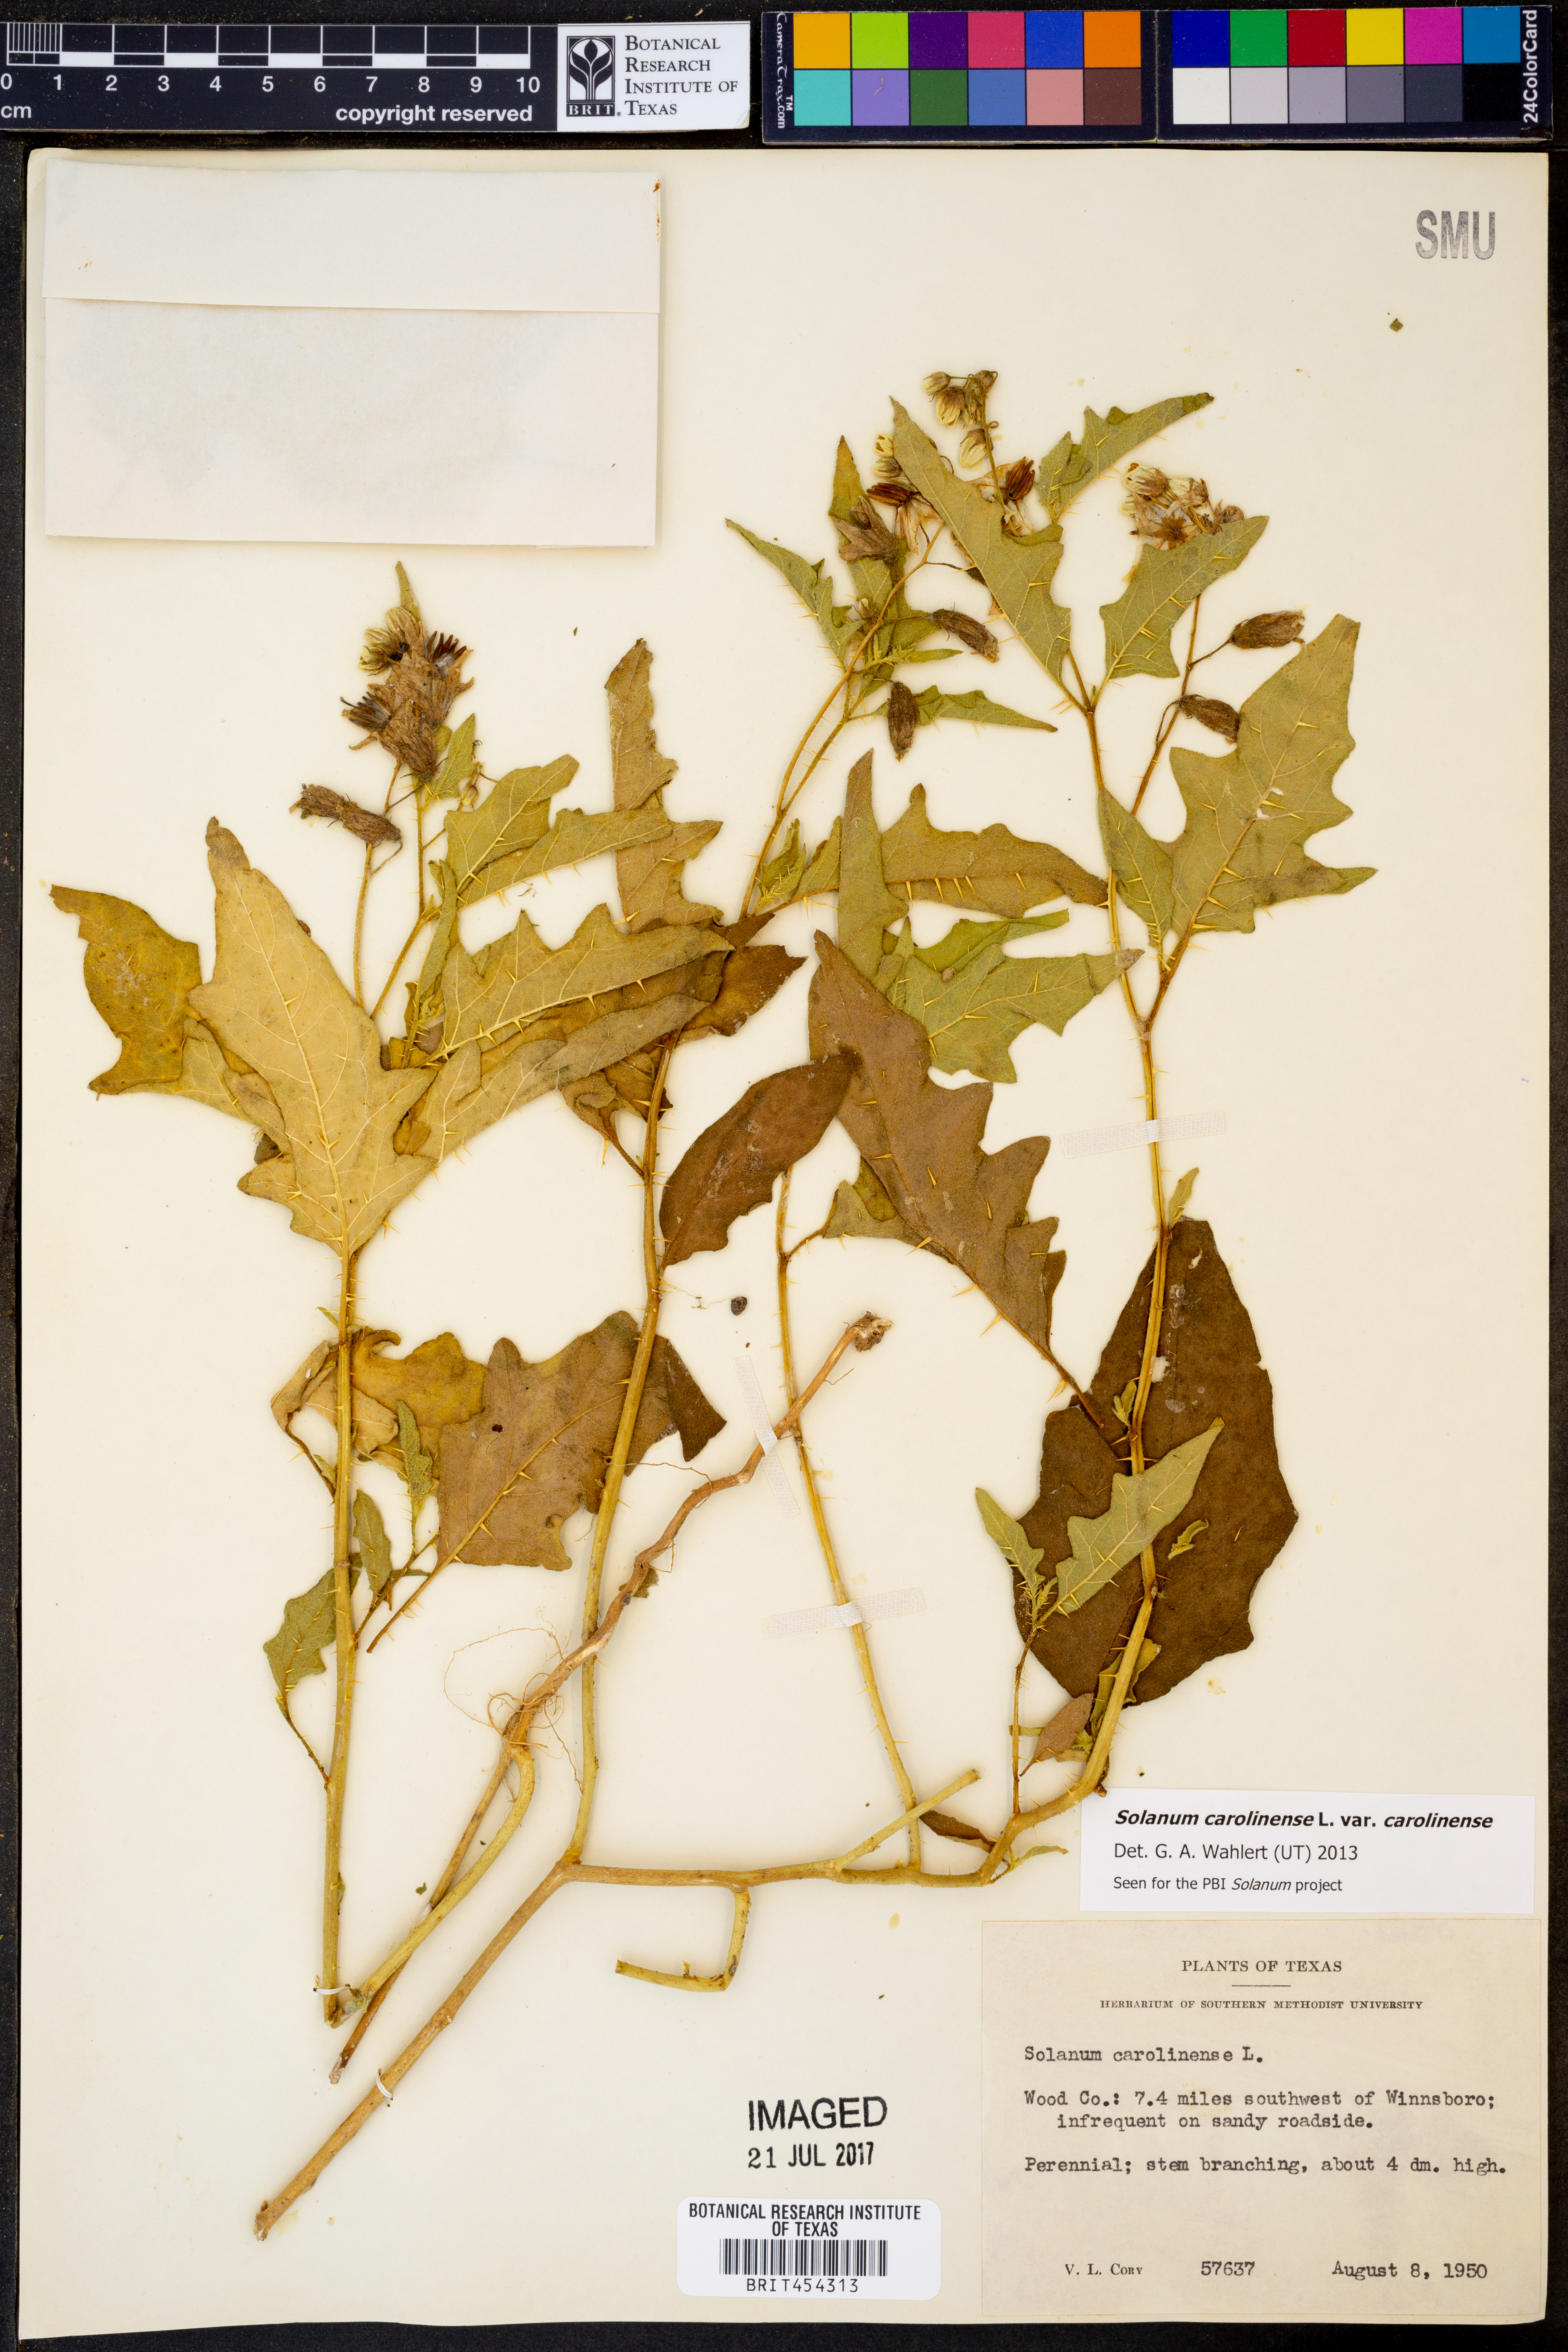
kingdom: Plantae
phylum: Tracheophyta
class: Magnoliopsida
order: Solanales
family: Solanaceae
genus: Solanum
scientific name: Solanum carolinense
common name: Horse-nettle
